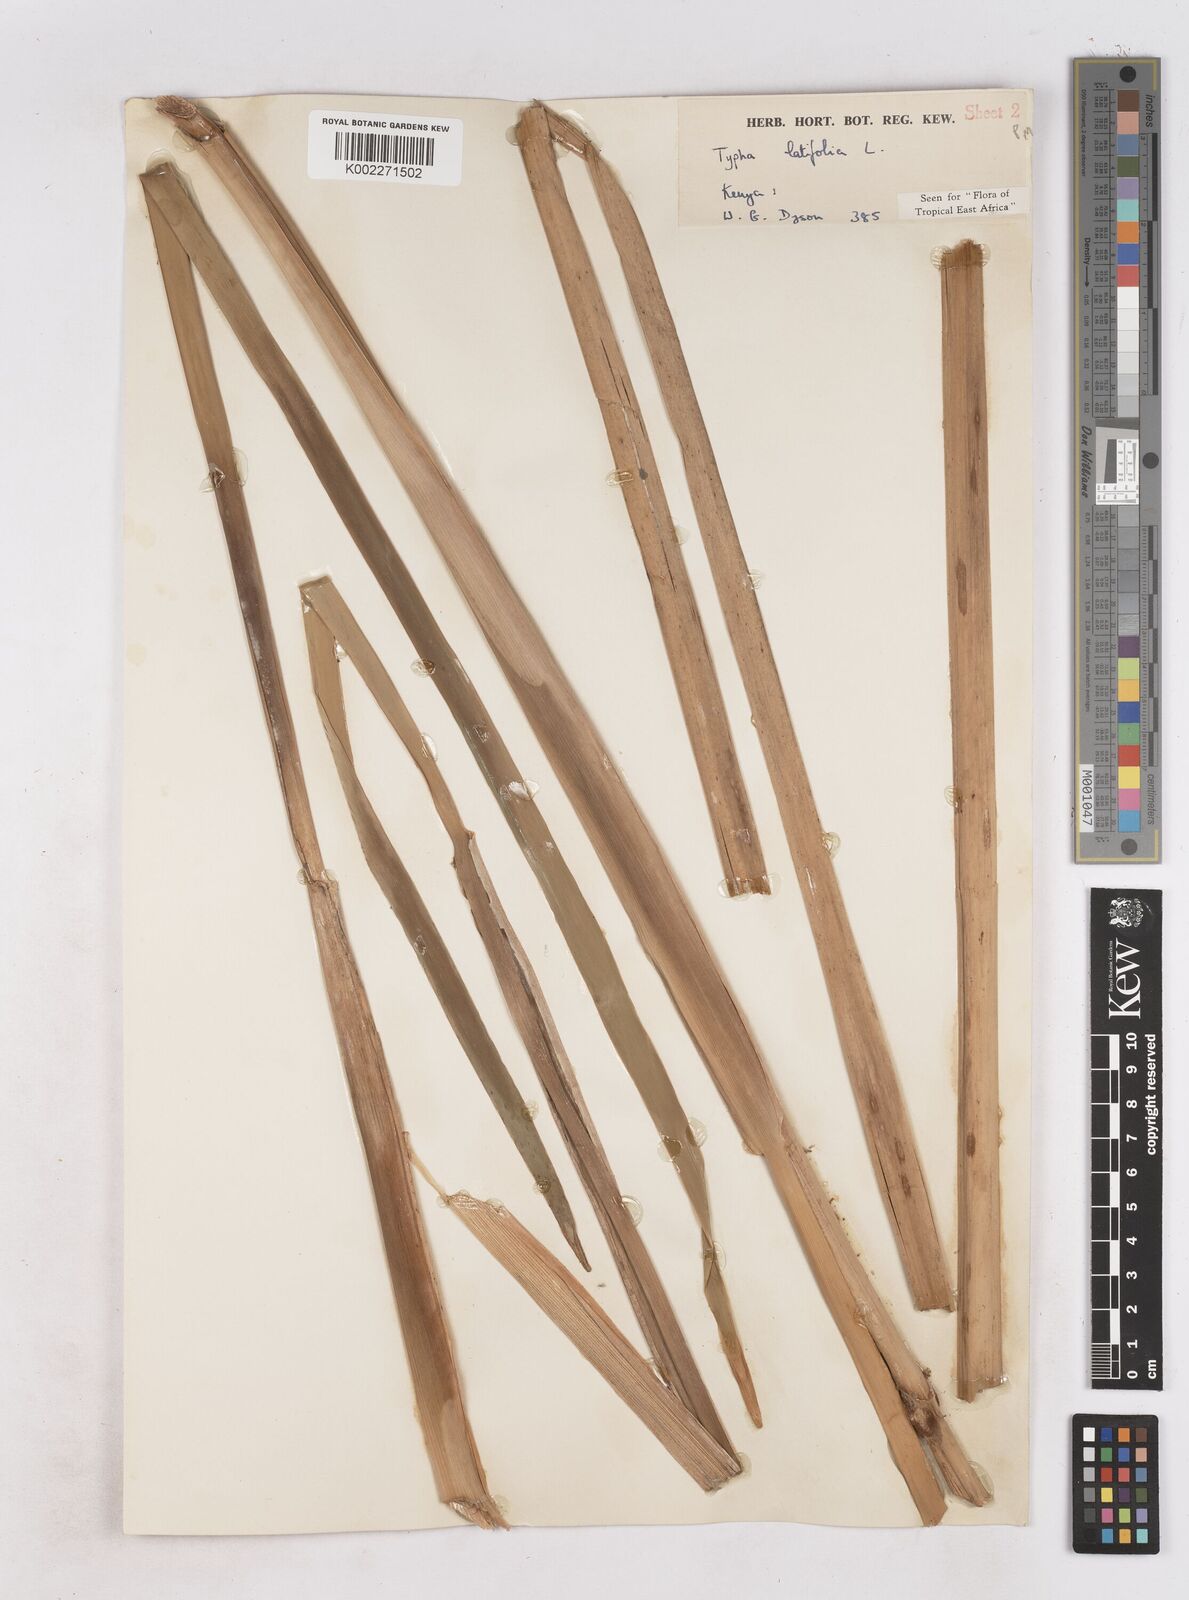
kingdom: Plantae
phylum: Tracheophyta
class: Liliopsida
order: Poales
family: Typhaceae
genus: Typha
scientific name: Typha latifolia
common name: Broadleaf cattail
